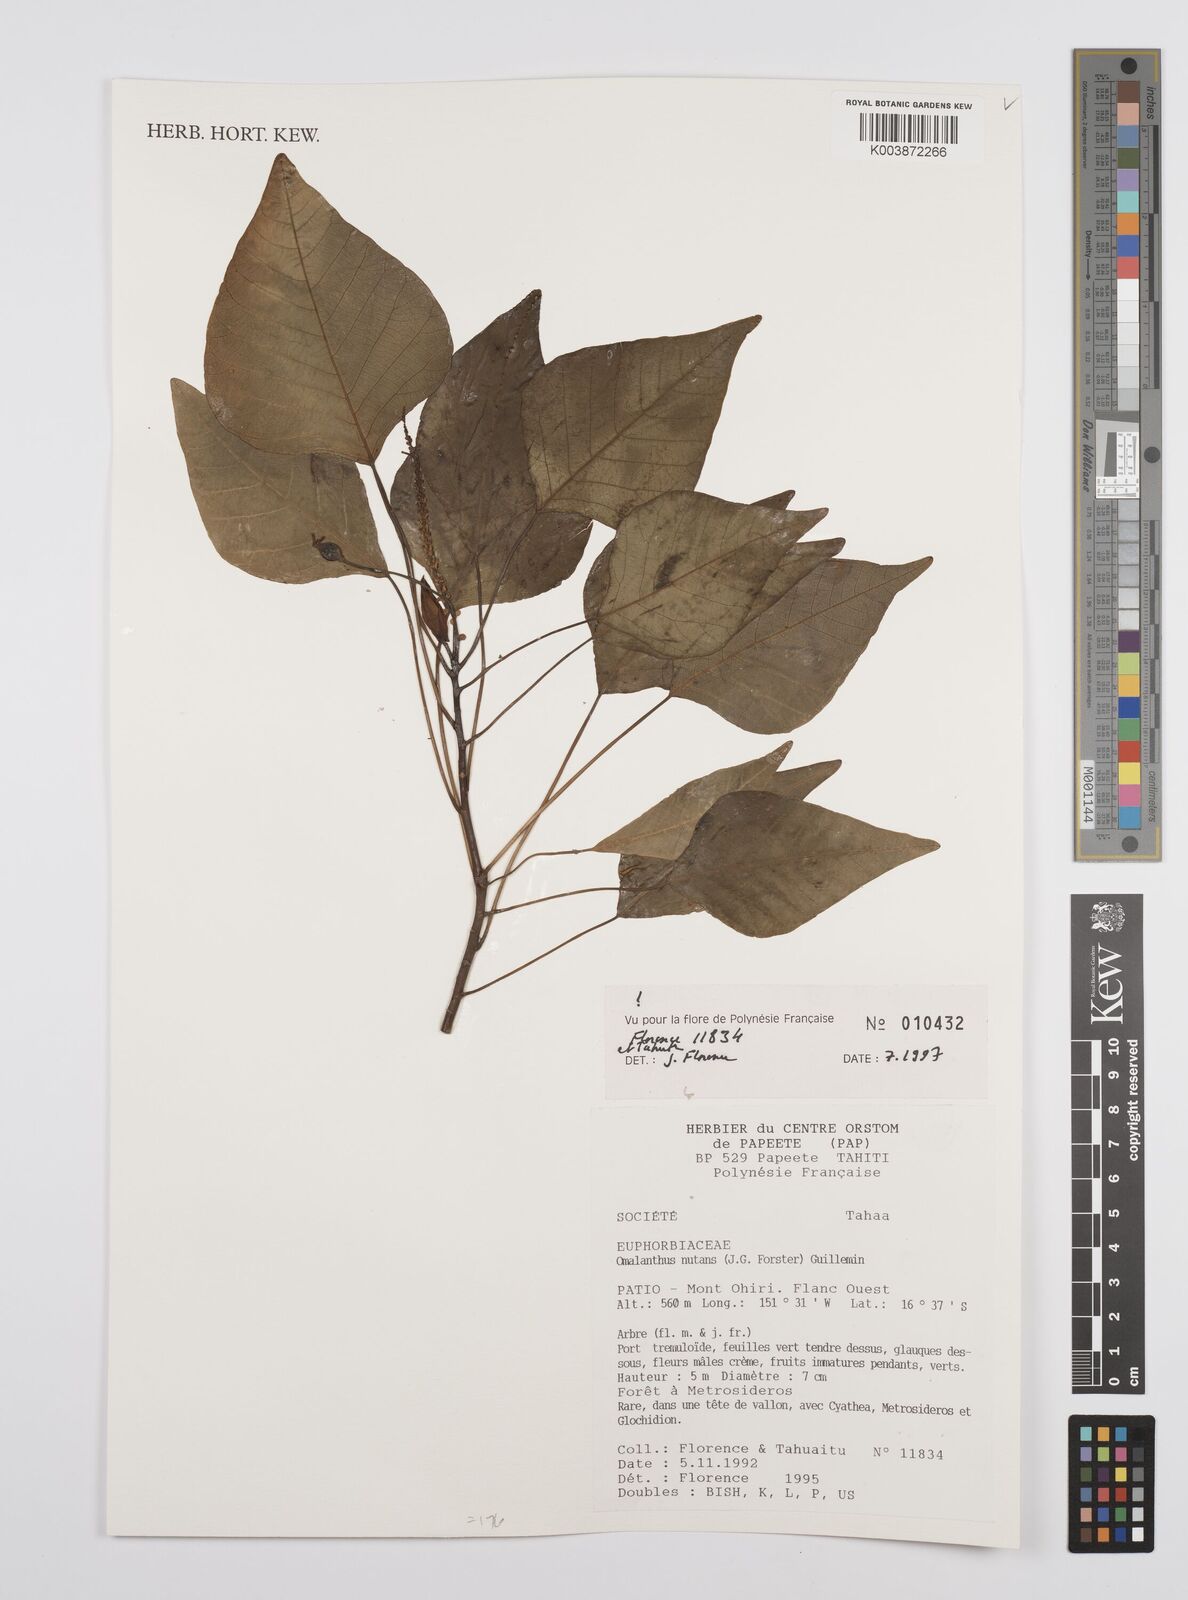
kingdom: Plantae
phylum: Tracheophyta
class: Magnoliopsida
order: Malpighiales
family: Euphorbiaceae
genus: Homalanthus
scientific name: Homalanthus nutans
